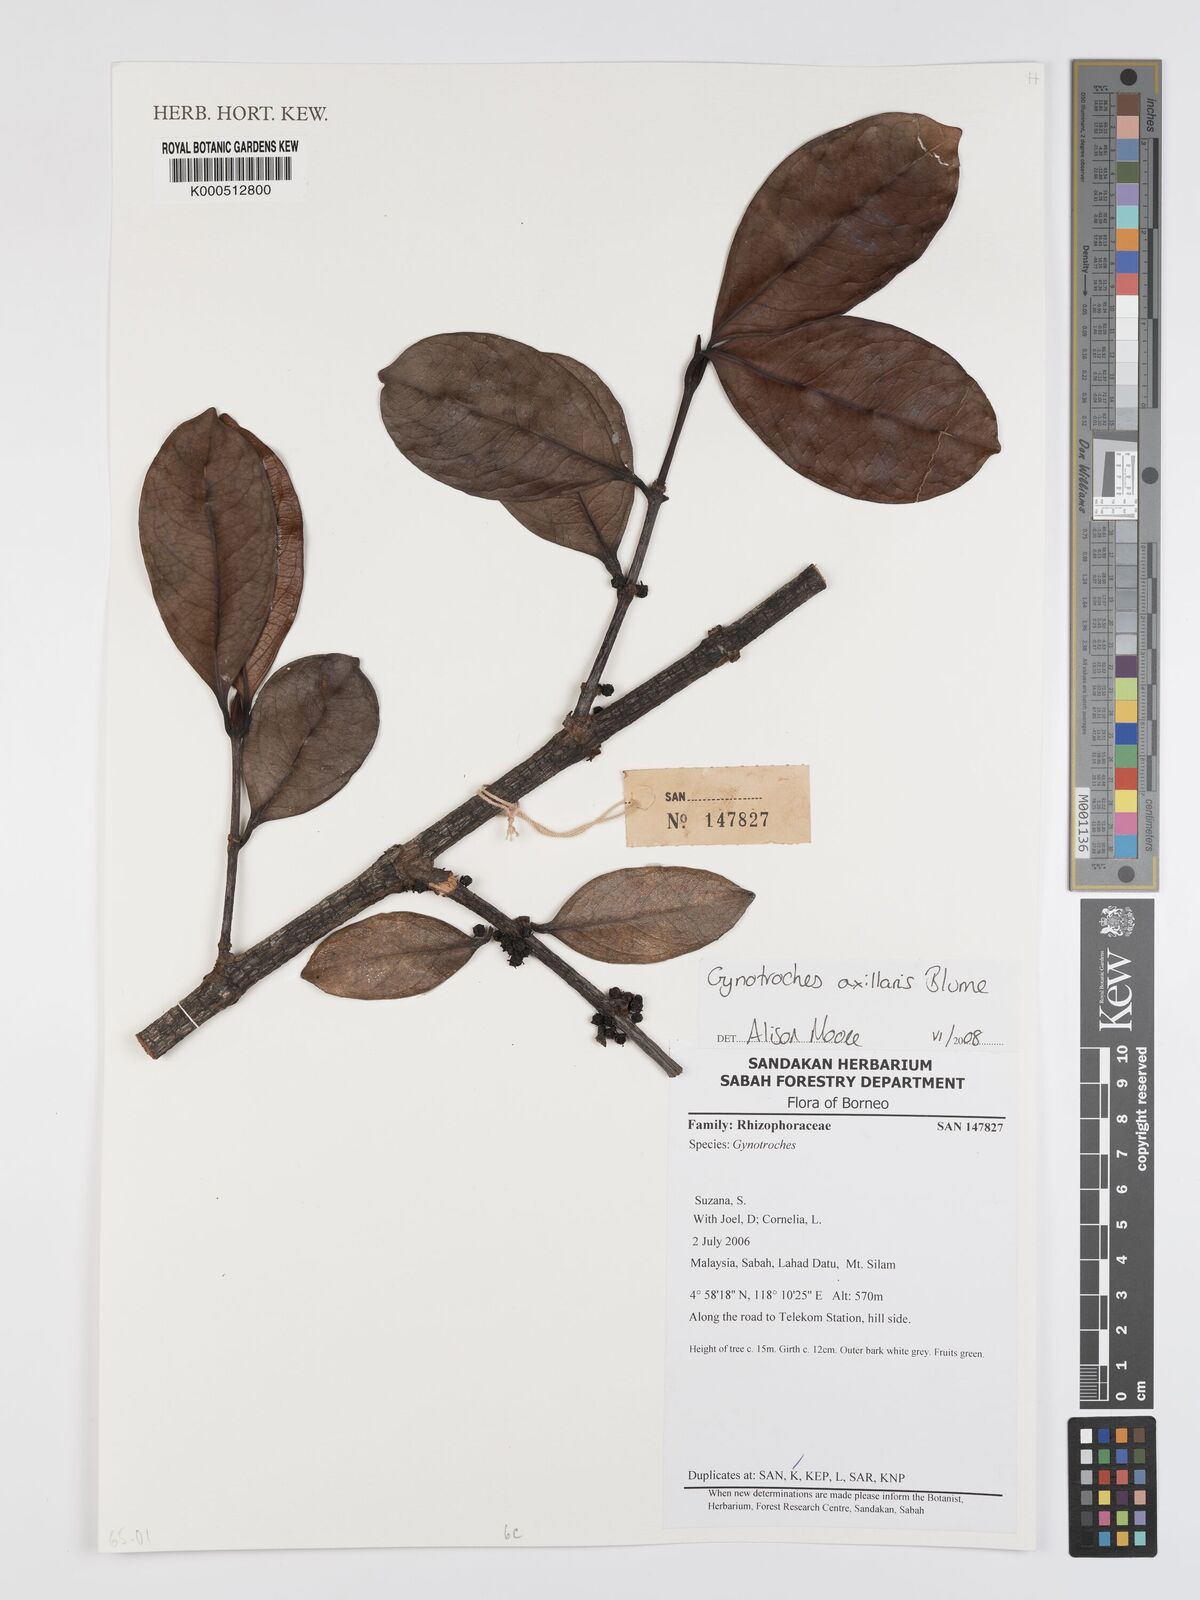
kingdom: Plantae
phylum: Tracheophyta
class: Magnoliopsida
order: Malpighiales
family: Rhizophoraceae
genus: Gynotroches
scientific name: Gynotroches axillaris
